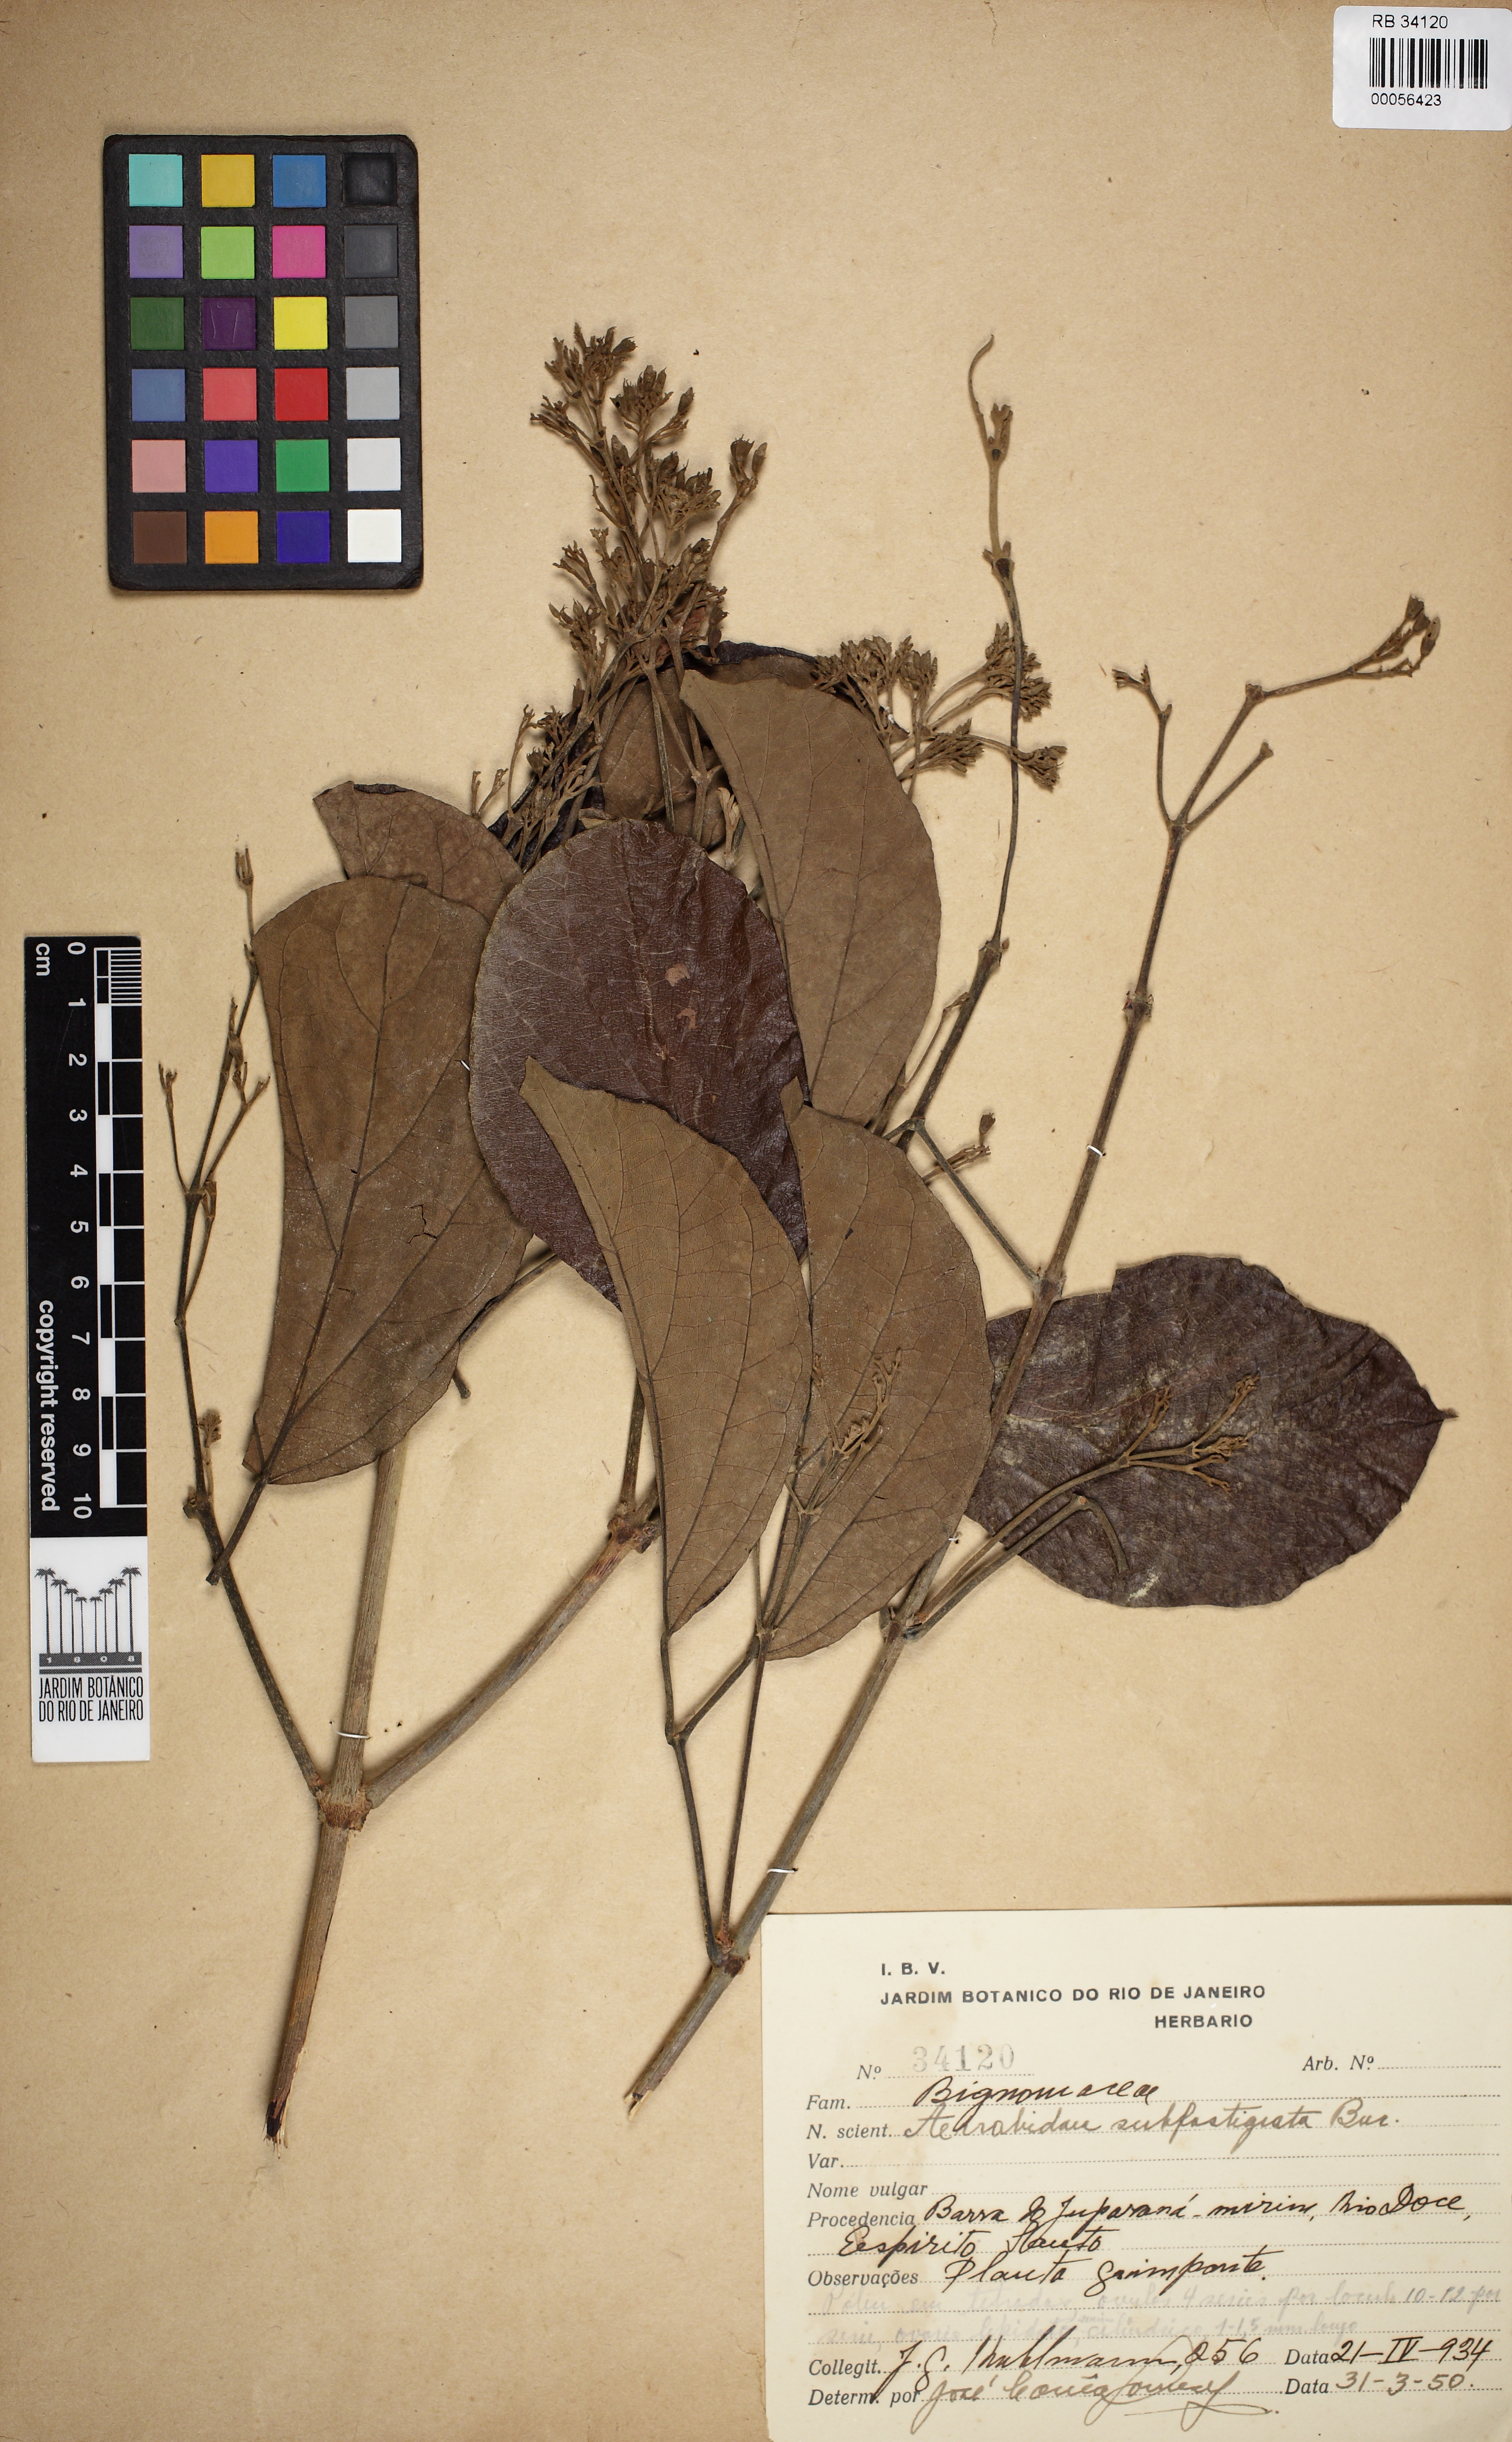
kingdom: Plantae
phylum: Tracheophyta
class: Magnoliopsida
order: Lamiales
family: Bignoniaceae
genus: Cuspidaria
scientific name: Cuspidaria lasiantha
